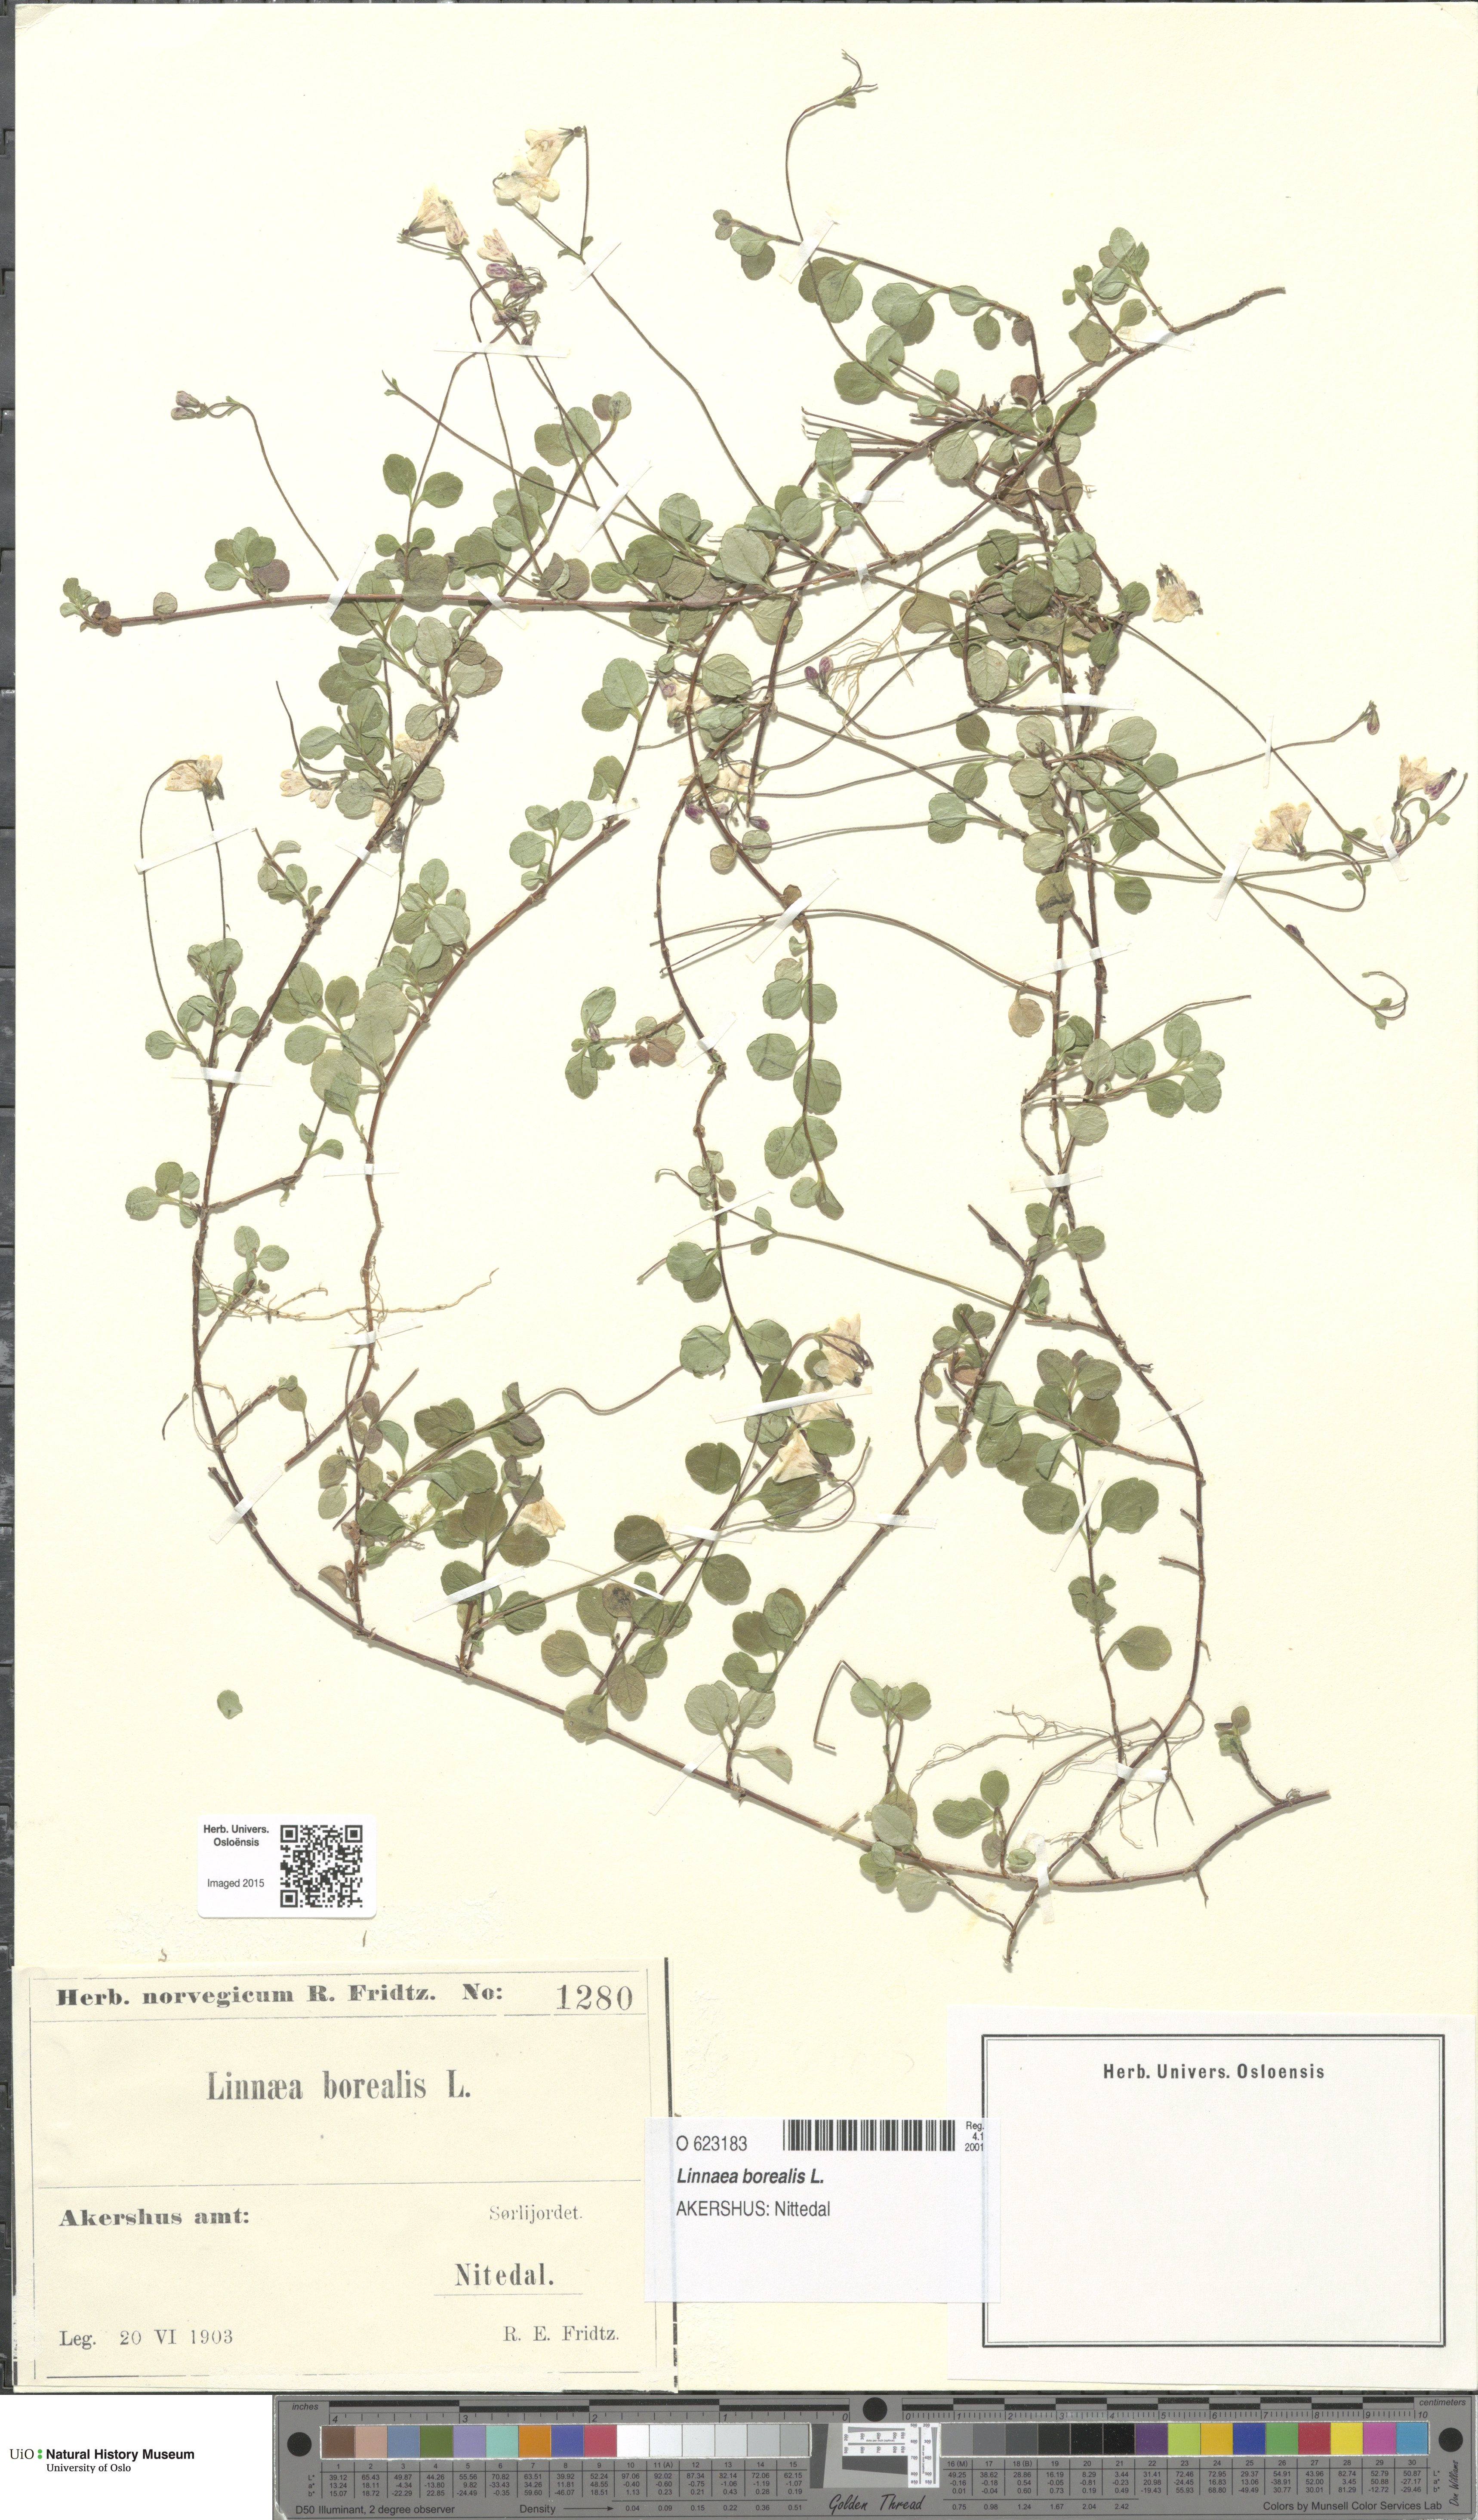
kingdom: Plantae
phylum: Tracheophyta
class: Magnoliopsida
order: Dipsacales
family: Caprifoliaceae
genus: Linnaea
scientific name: Linnaea borealis
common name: Twinflower
